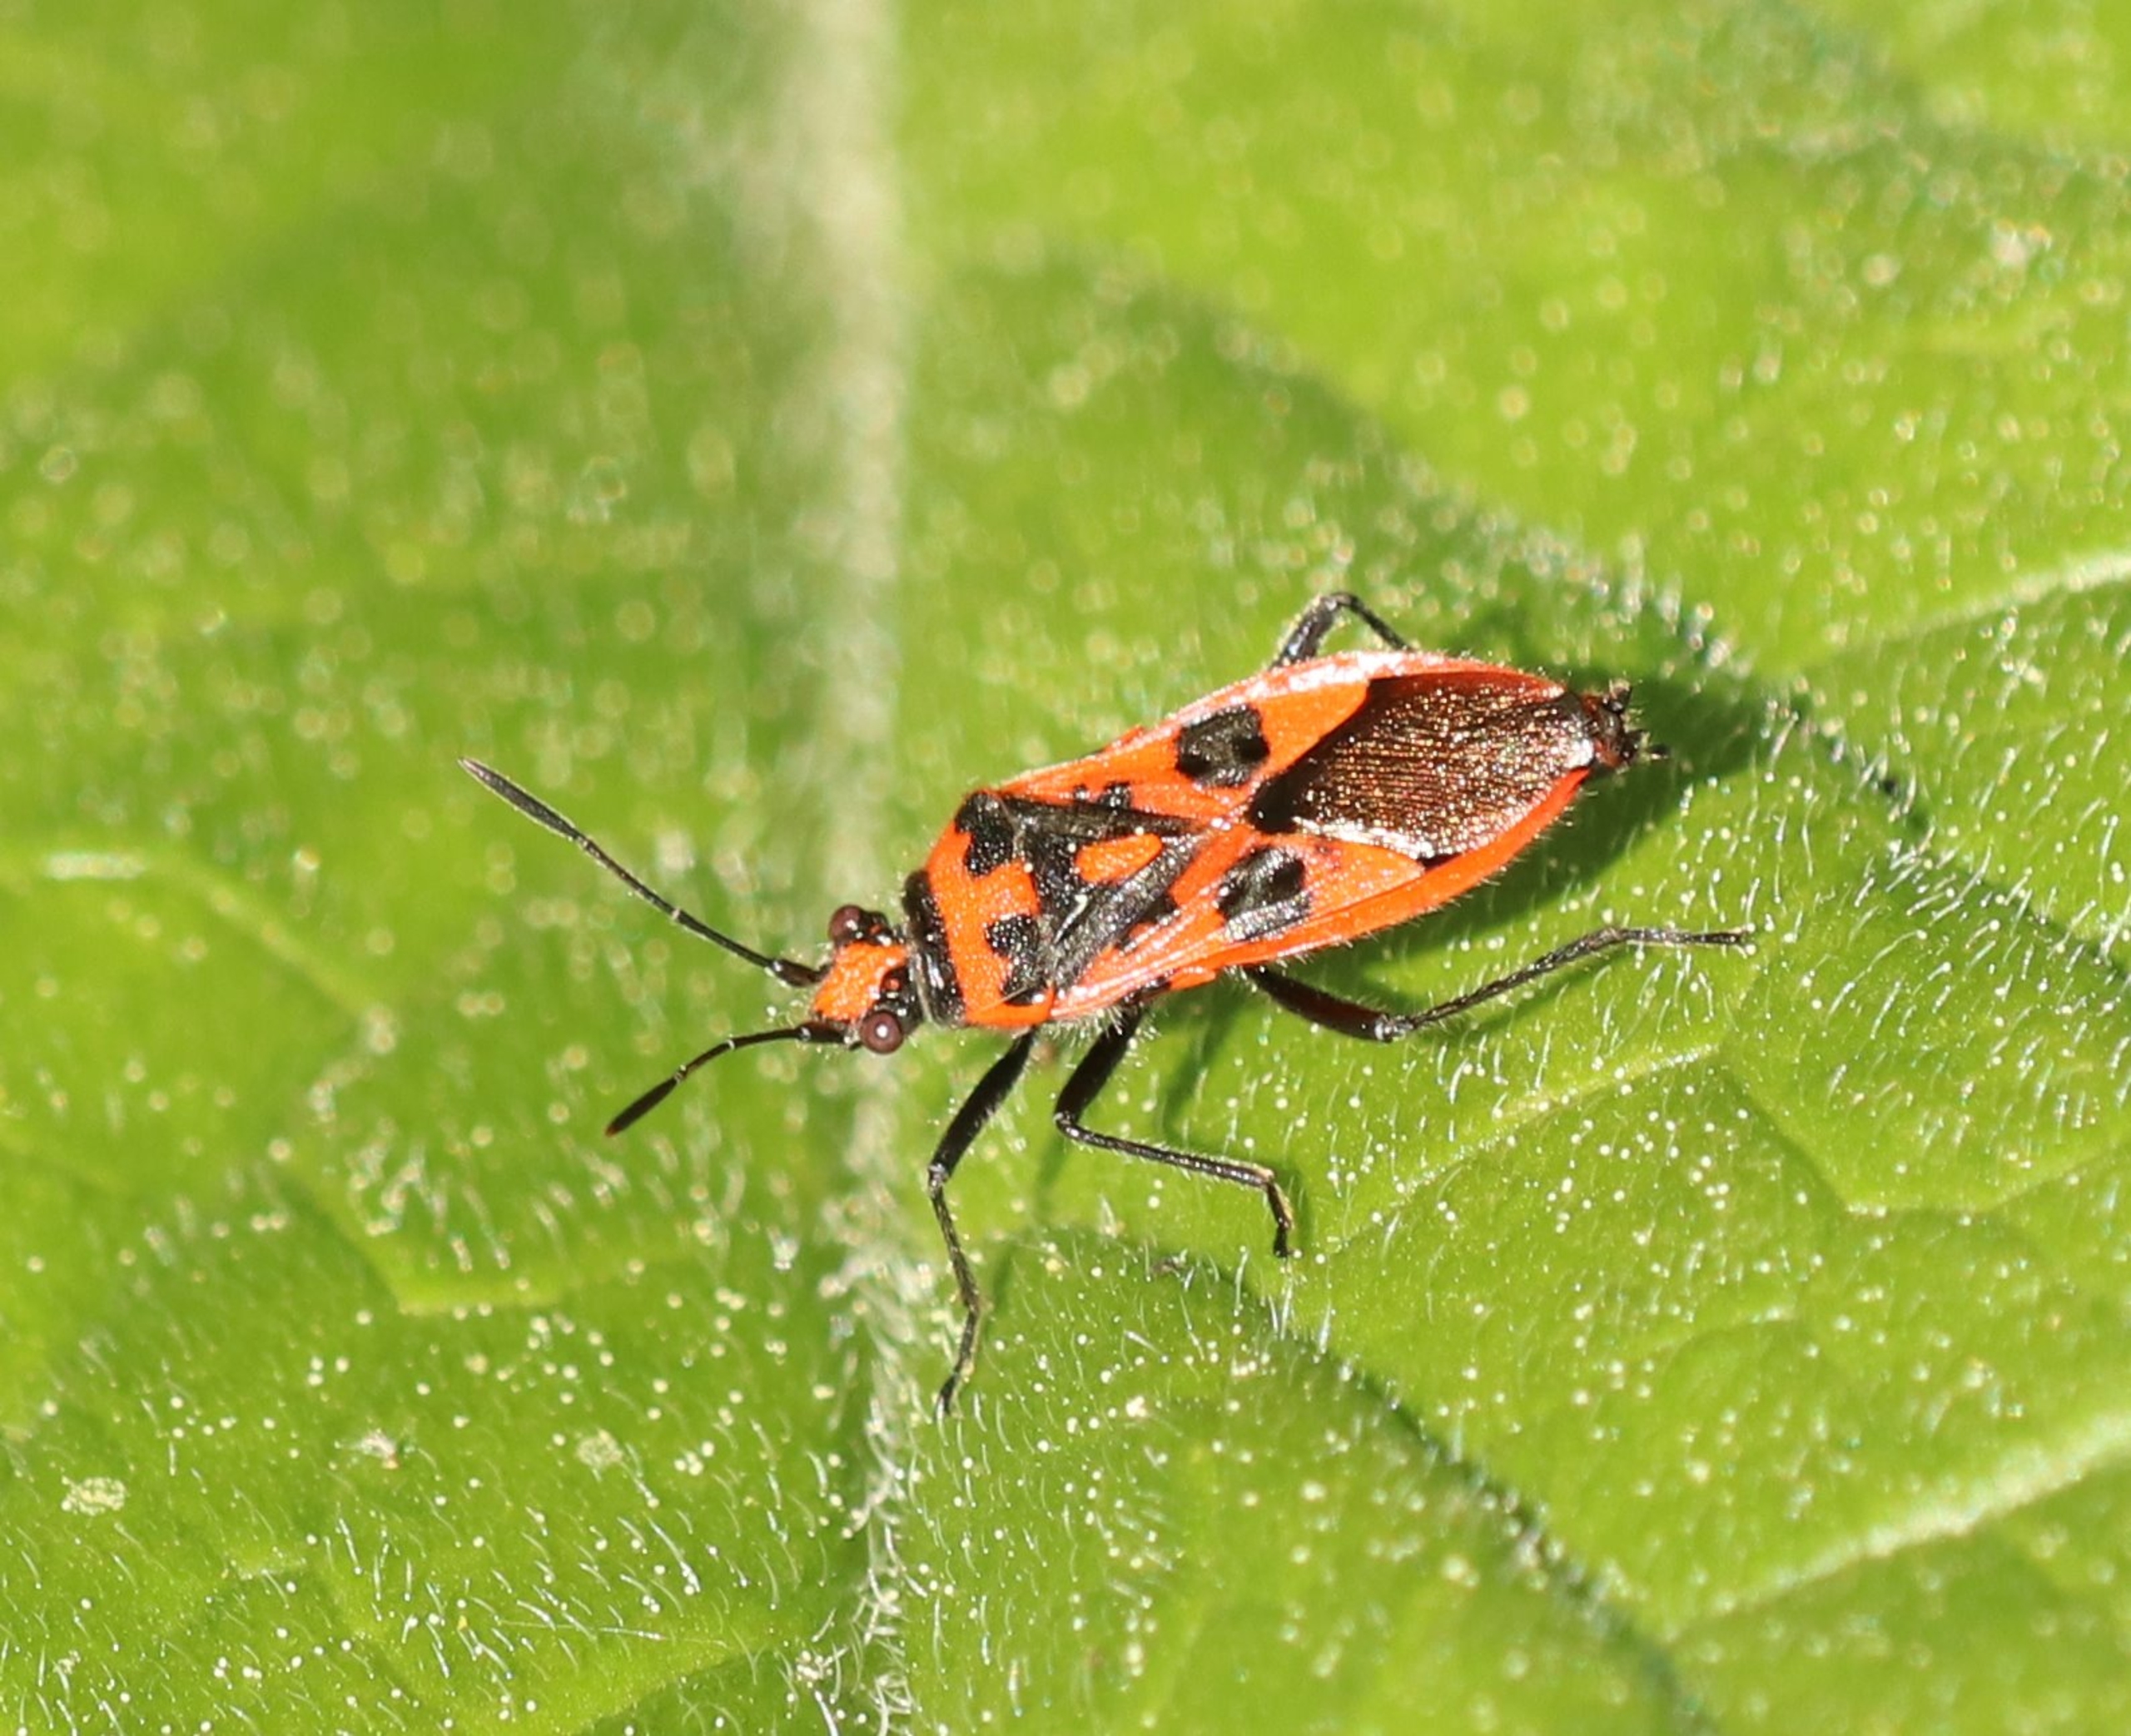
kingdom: Animalia
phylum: Arthropoda
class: Insecta
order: Hemiptera
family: Rhopalidae
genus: Corizus
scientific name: Corizus hyoscyami
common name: Rød kanttæge
